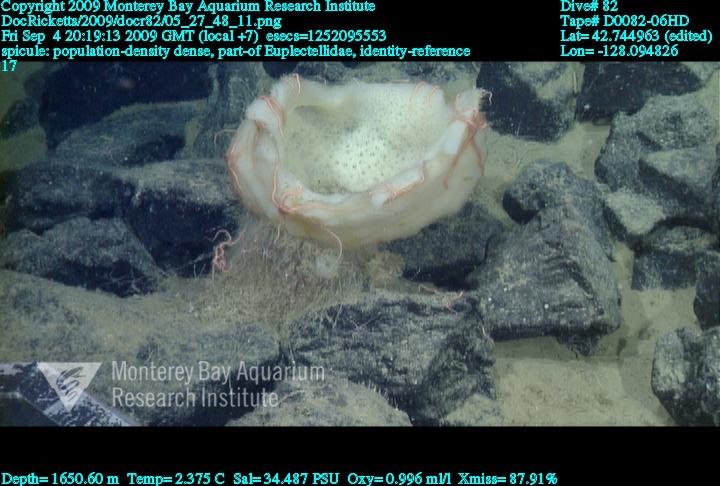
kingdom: Animalia
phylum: Porifera
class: Hexactinellida
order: Lyssacinosida
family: Euplectellidae
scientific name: Euplectellidae
